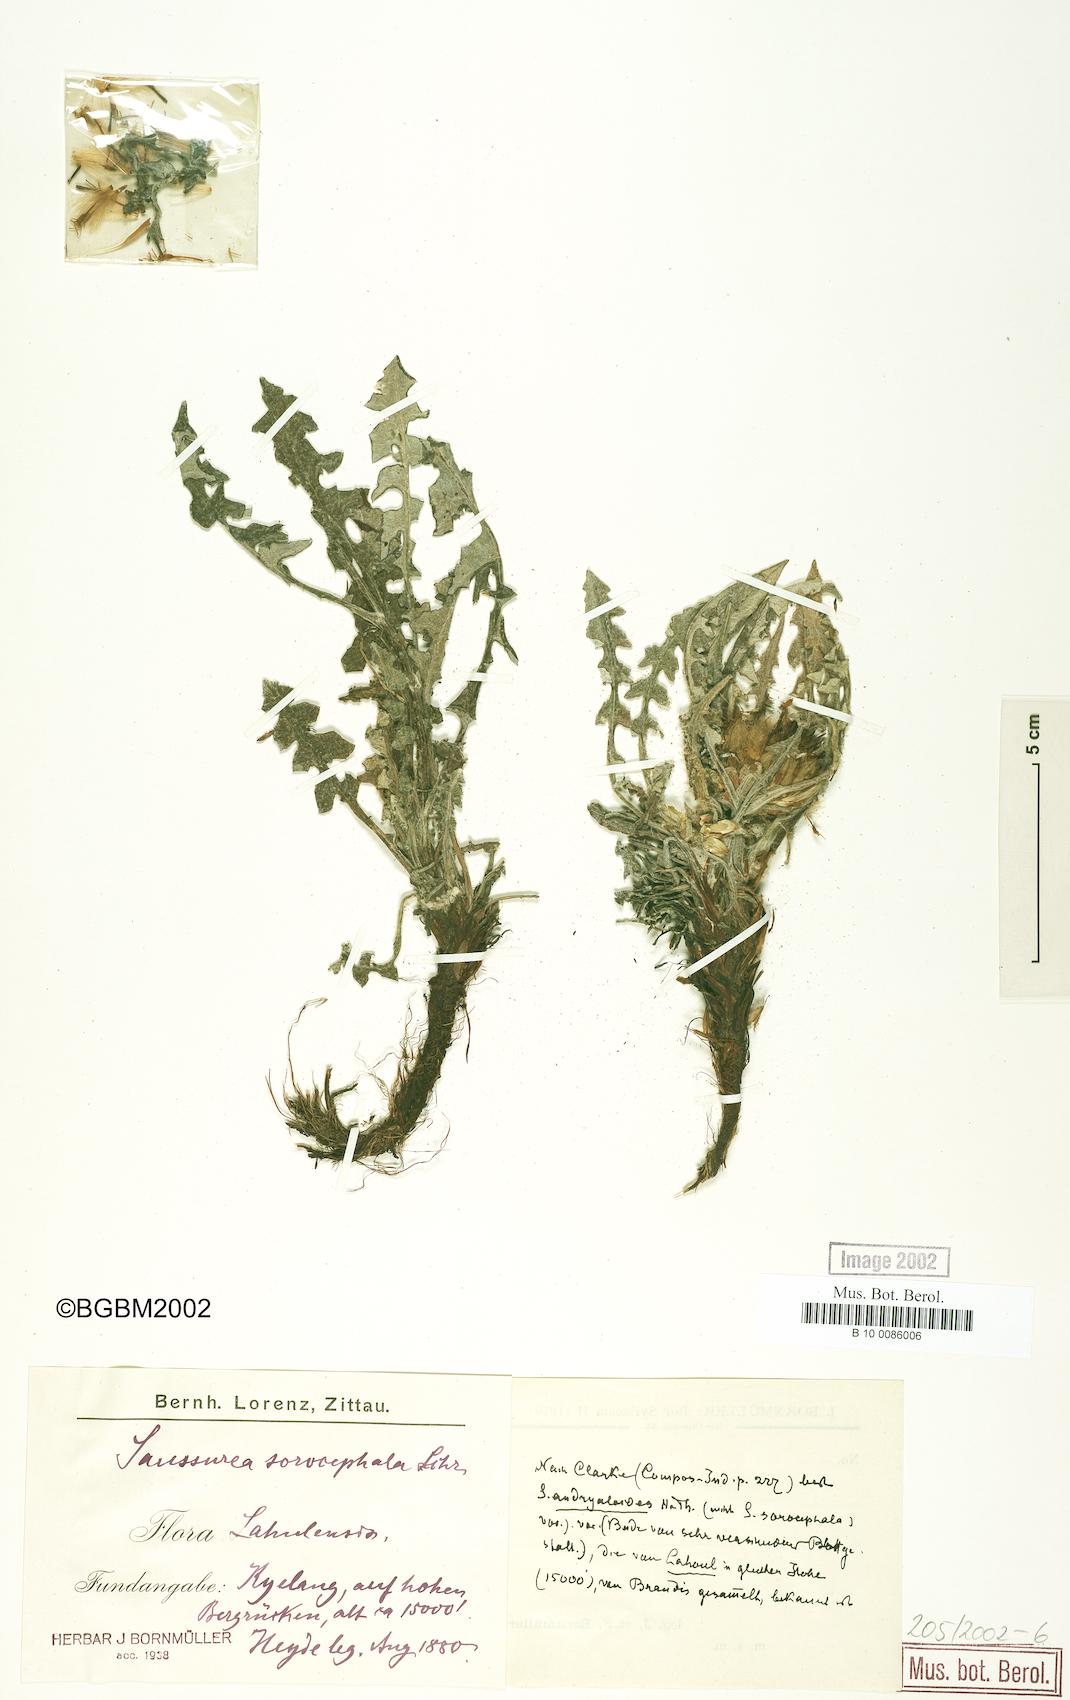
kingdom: Plantae
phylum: Tracheophyta
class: Magnoliopsida
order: Asterales
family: Asteraceae
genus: Saussurea
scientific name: Saussurea andryaloides
